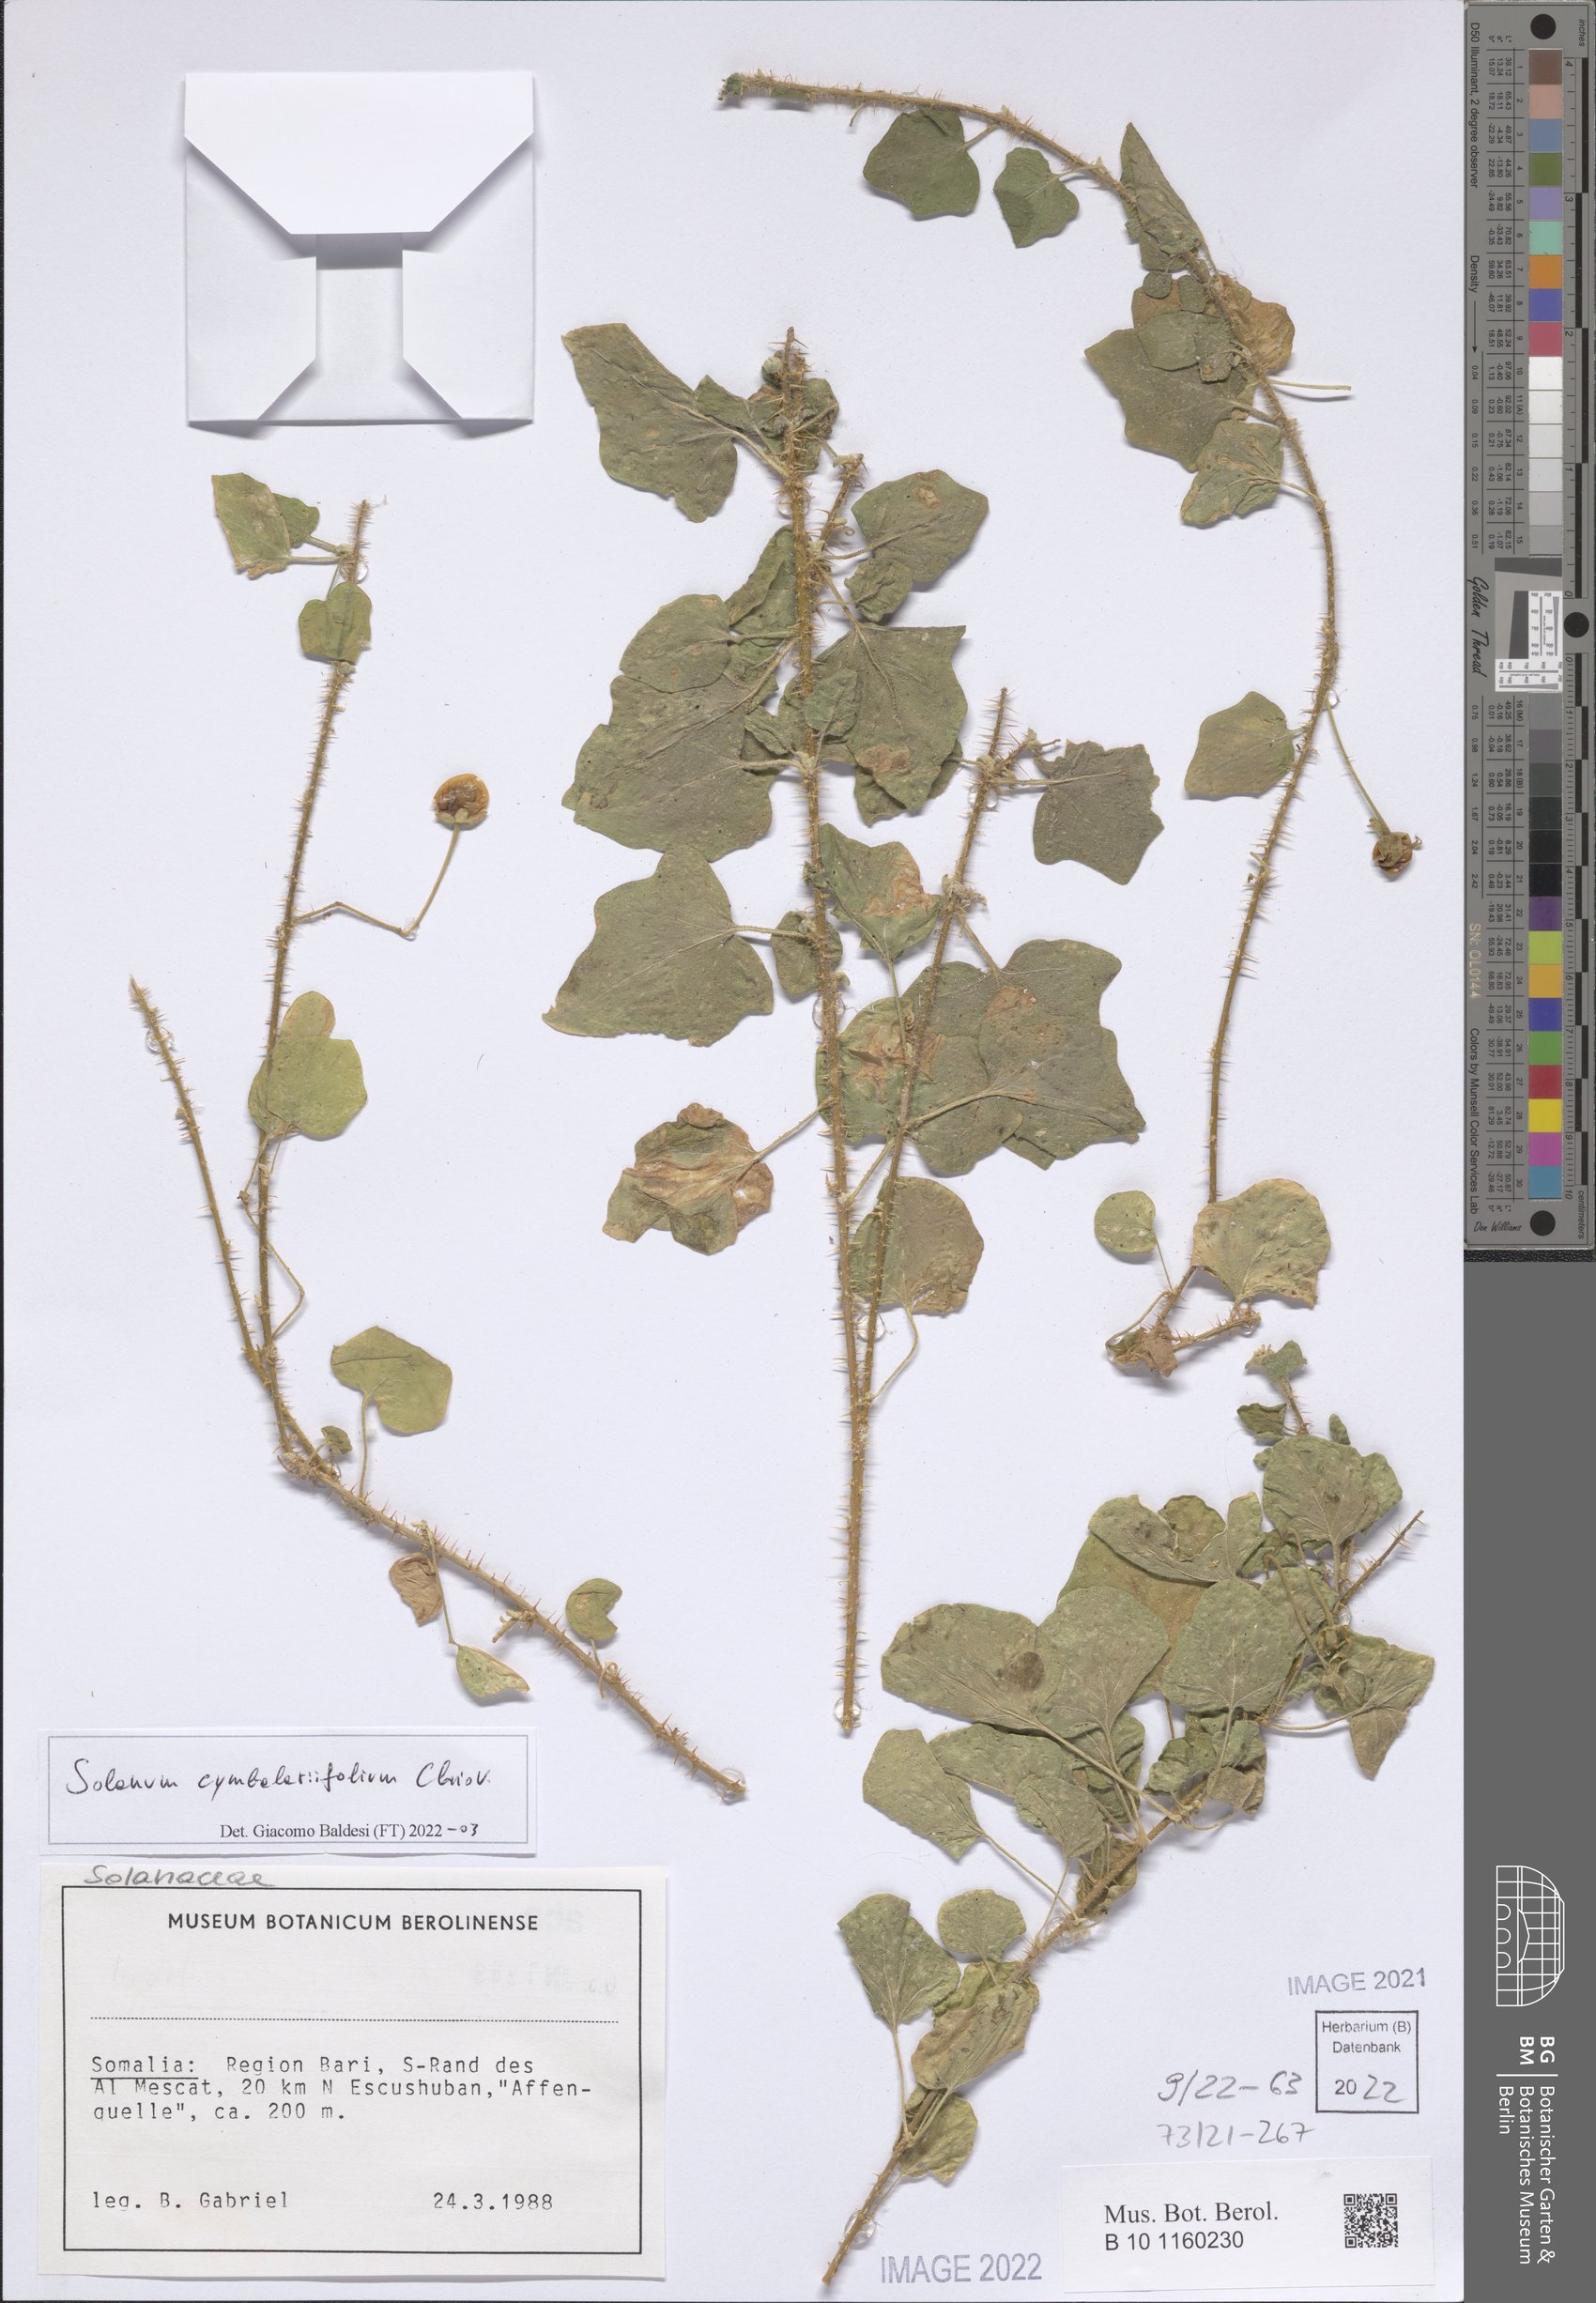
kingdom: Plantae
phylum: Tracheophyta
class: Magnoliopsida
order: Solanales
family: Solanaceae
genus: Solanum
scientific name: Solanum cymbalariifolium
